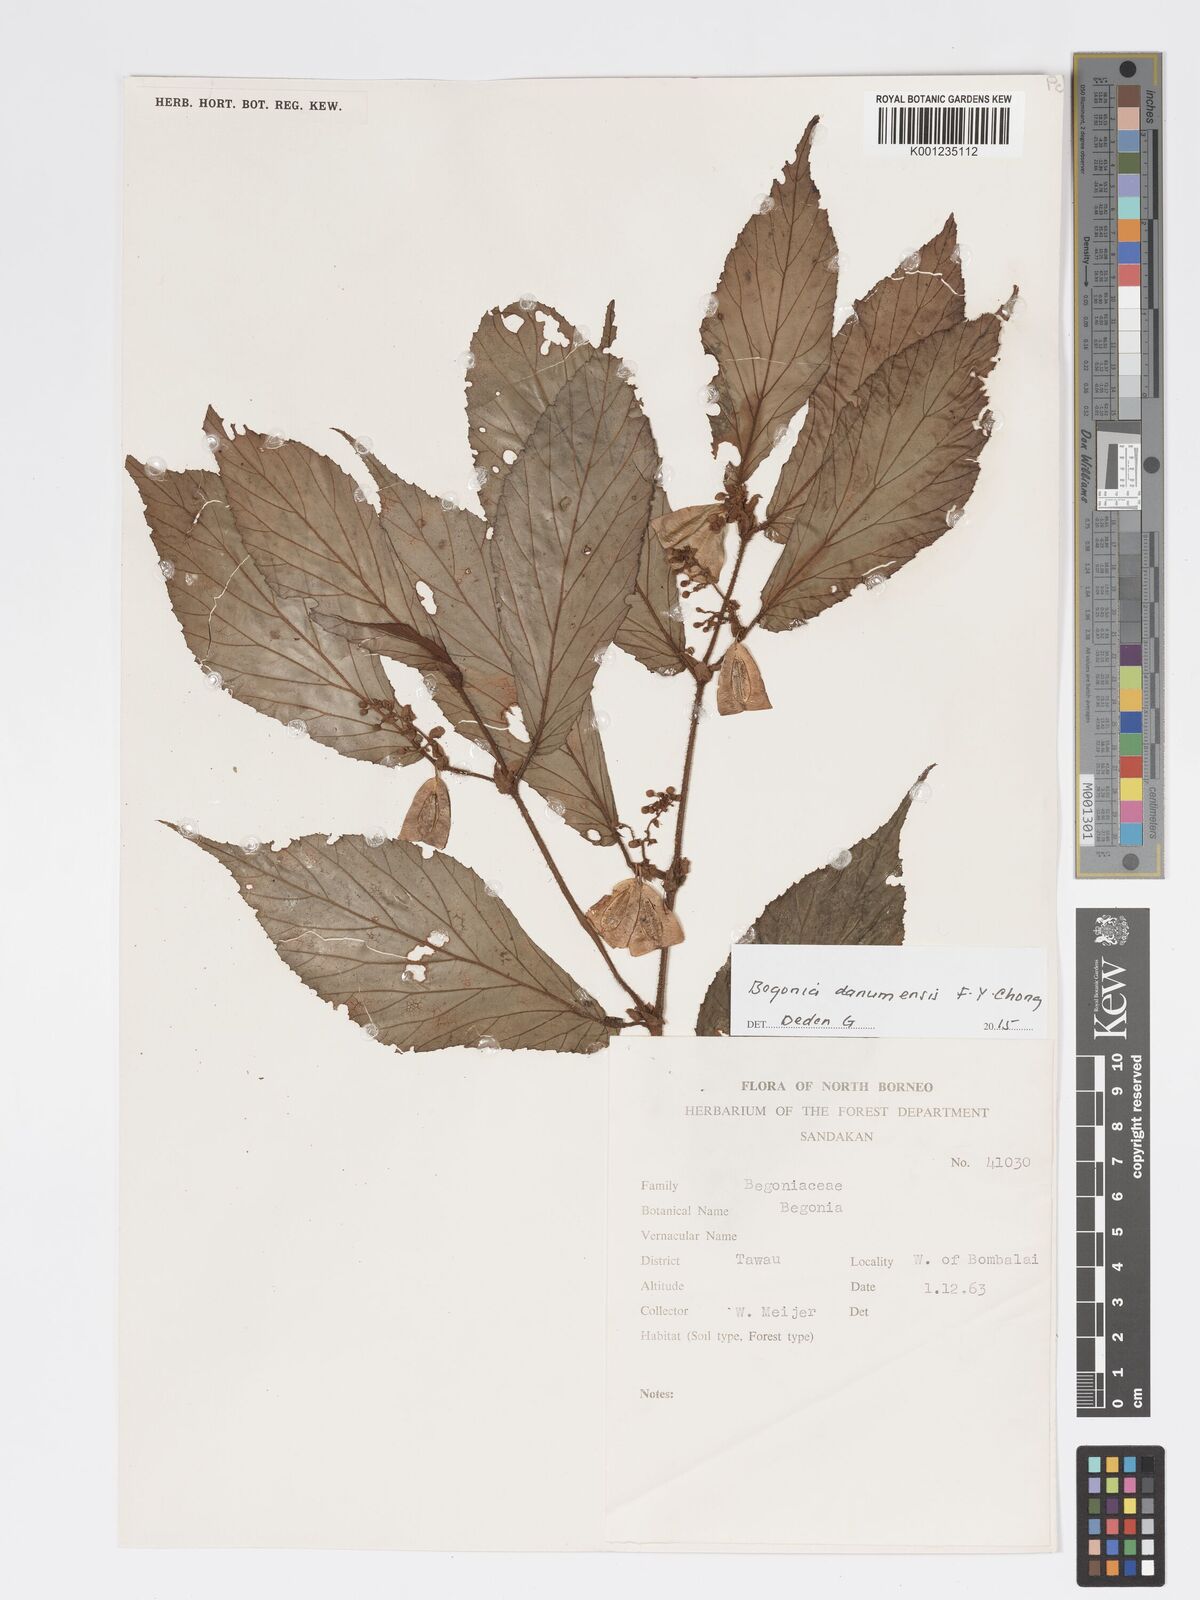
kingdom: Plantae
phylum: Tracheophyta
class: Magnoliopsida
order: Cucurbitales
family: Begoniaceae
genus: Begonia
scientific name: Begonia danumensis
